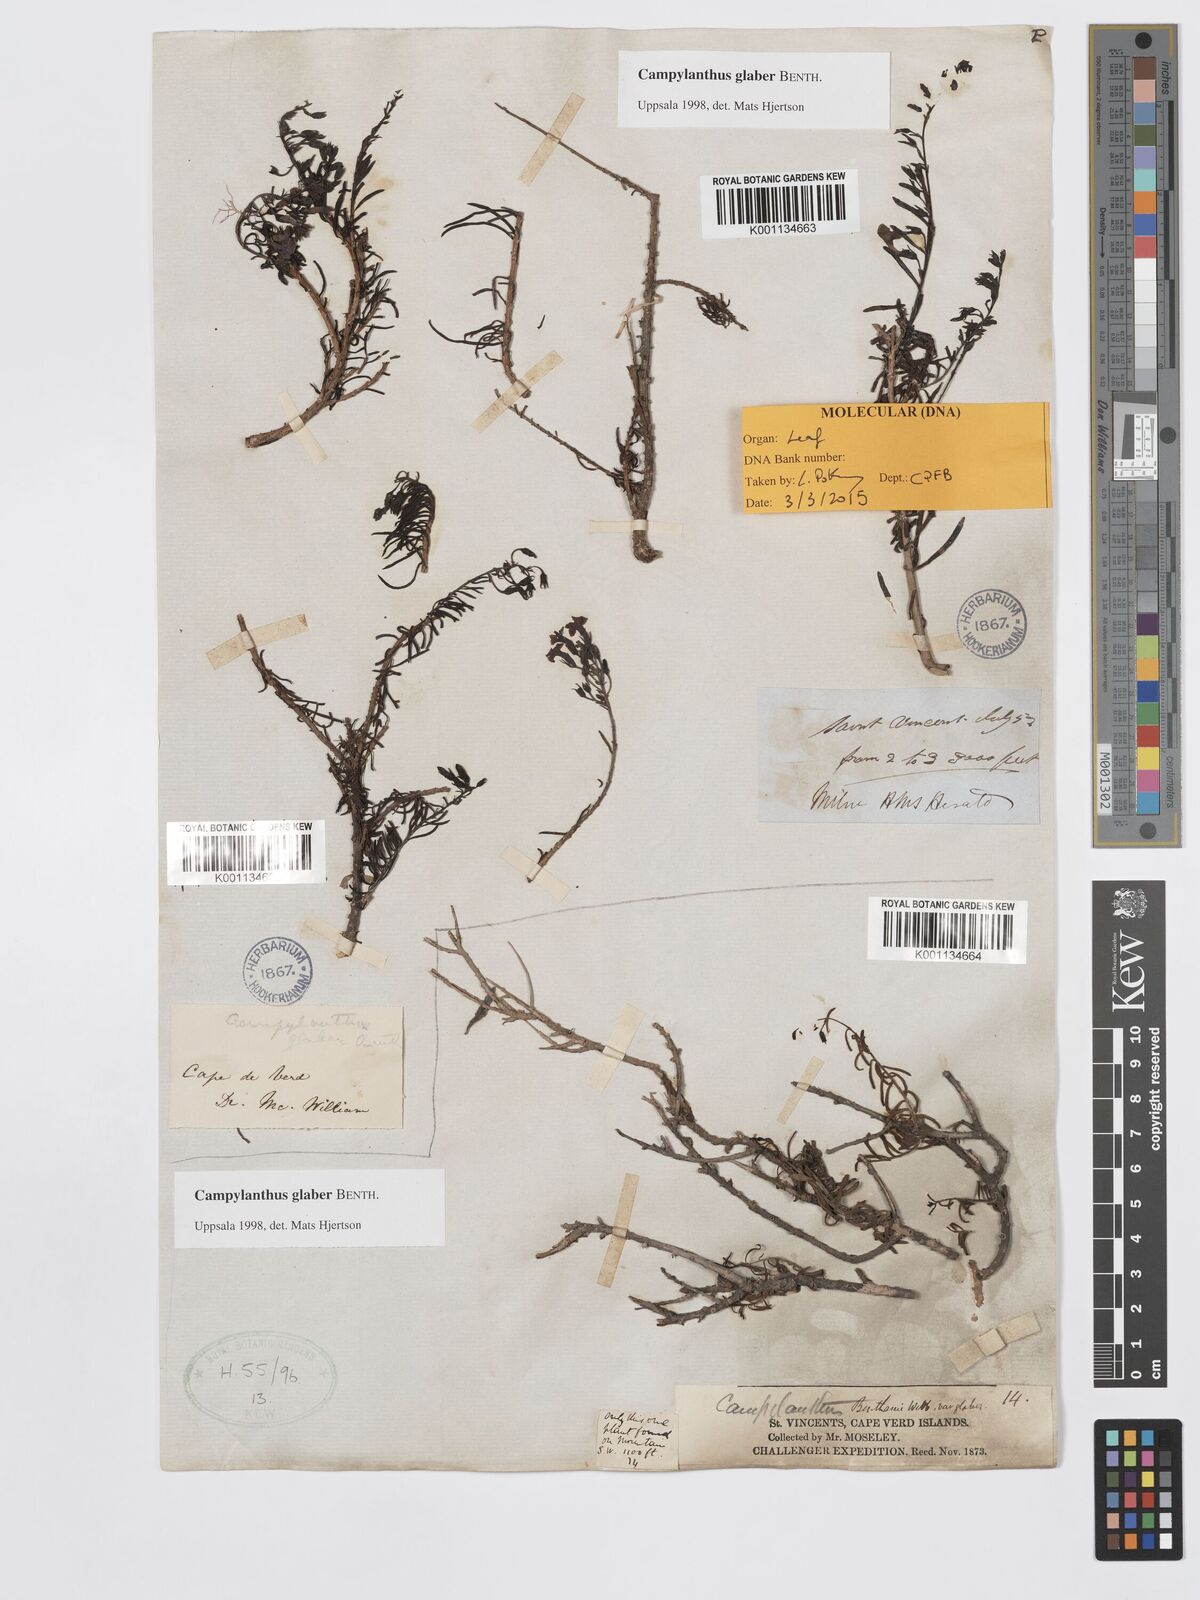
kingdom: Plantae
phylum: Tracheophyta
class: Magnoliopsida
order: Lamiales
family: Plantaginaceae
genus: Campylanthus
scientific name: Campylanthus glaber
